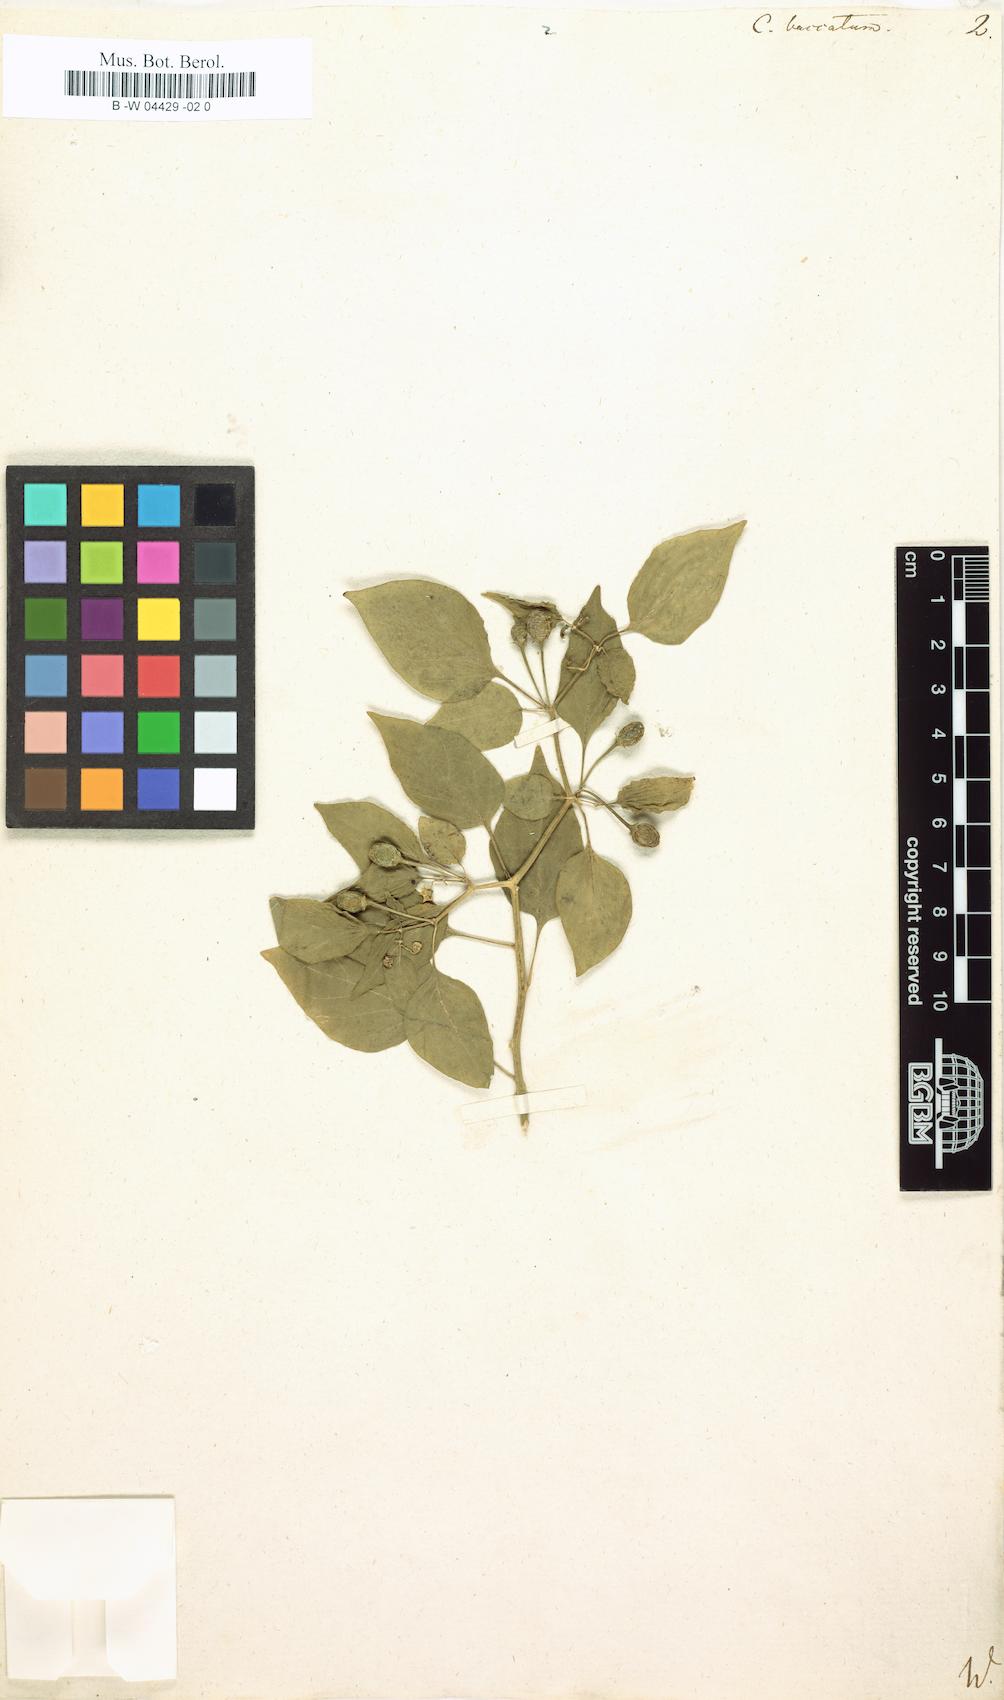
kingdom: Plantae
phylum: Tracheophyta
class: Magnoliopsida
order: Solanales
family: Solanaceae
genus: Capsicum
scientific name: Capsicum baccatum
